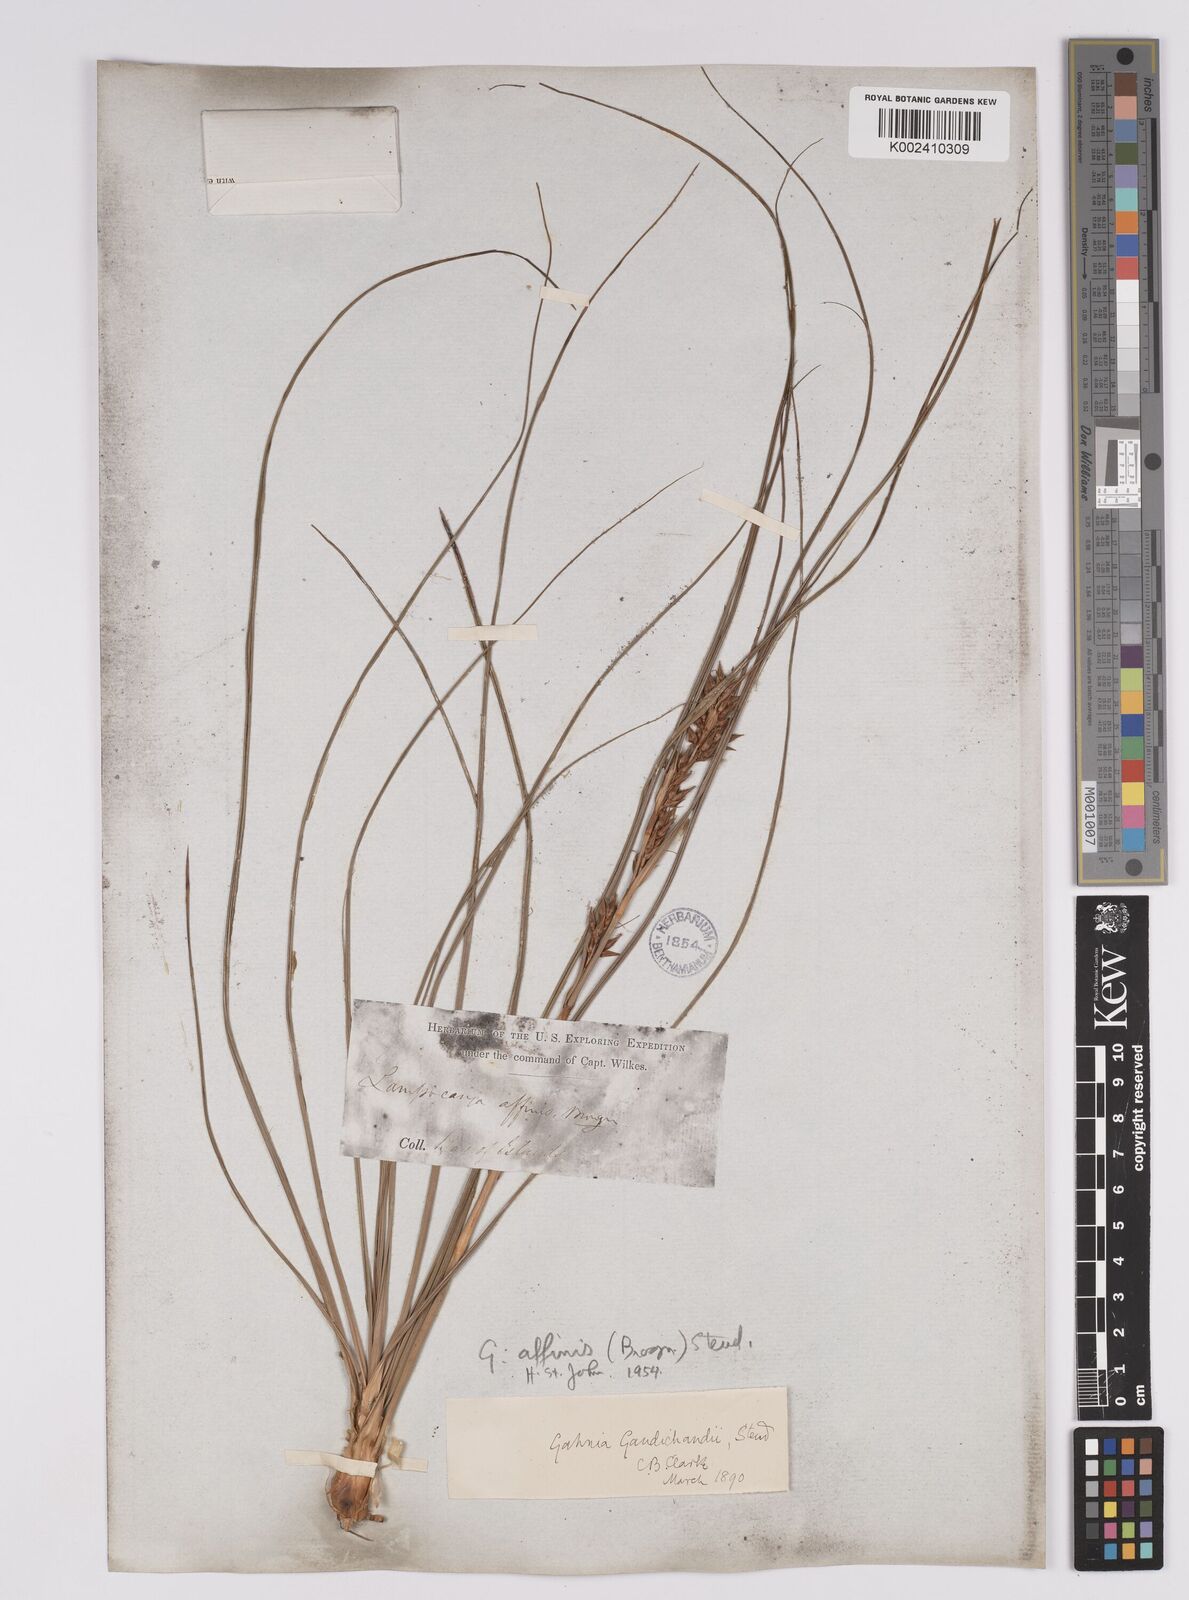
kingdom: Plantae
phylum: Tracheophyta
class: Liliopsida
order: Poales
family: Cyperaceae
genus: Morelotia
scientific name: Morelotia affinis
